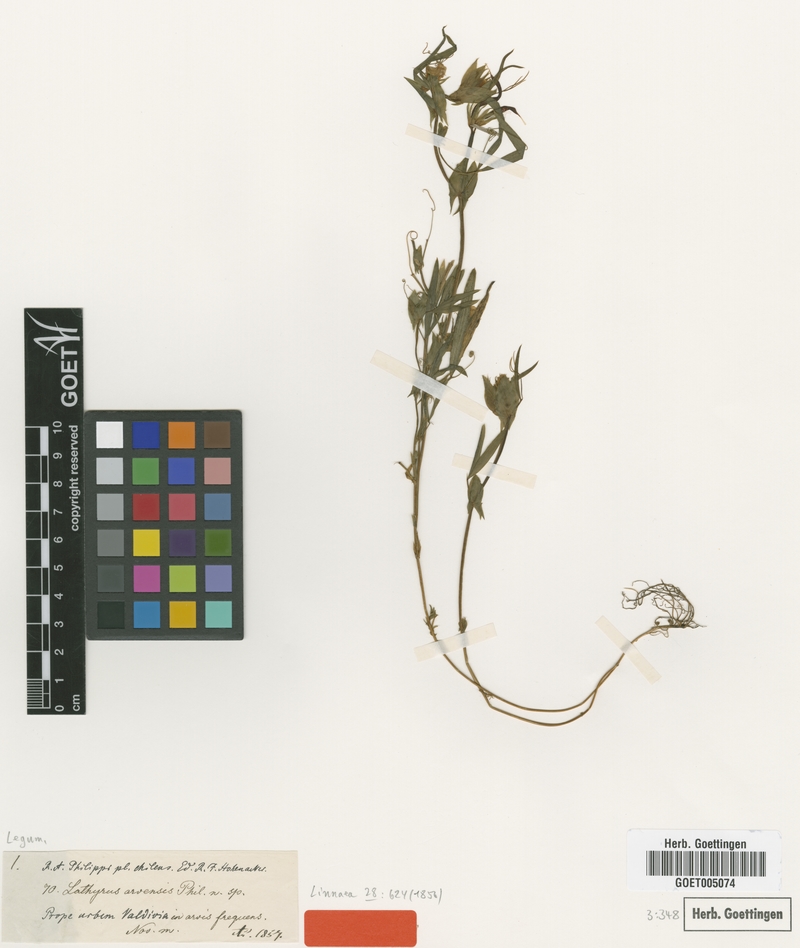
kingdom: Plantae
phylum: Tracheophyta
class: Magnoliopsida
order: Fabales
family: Fabaceae
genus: Lathyrus
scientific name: Lathyrus crassipes
